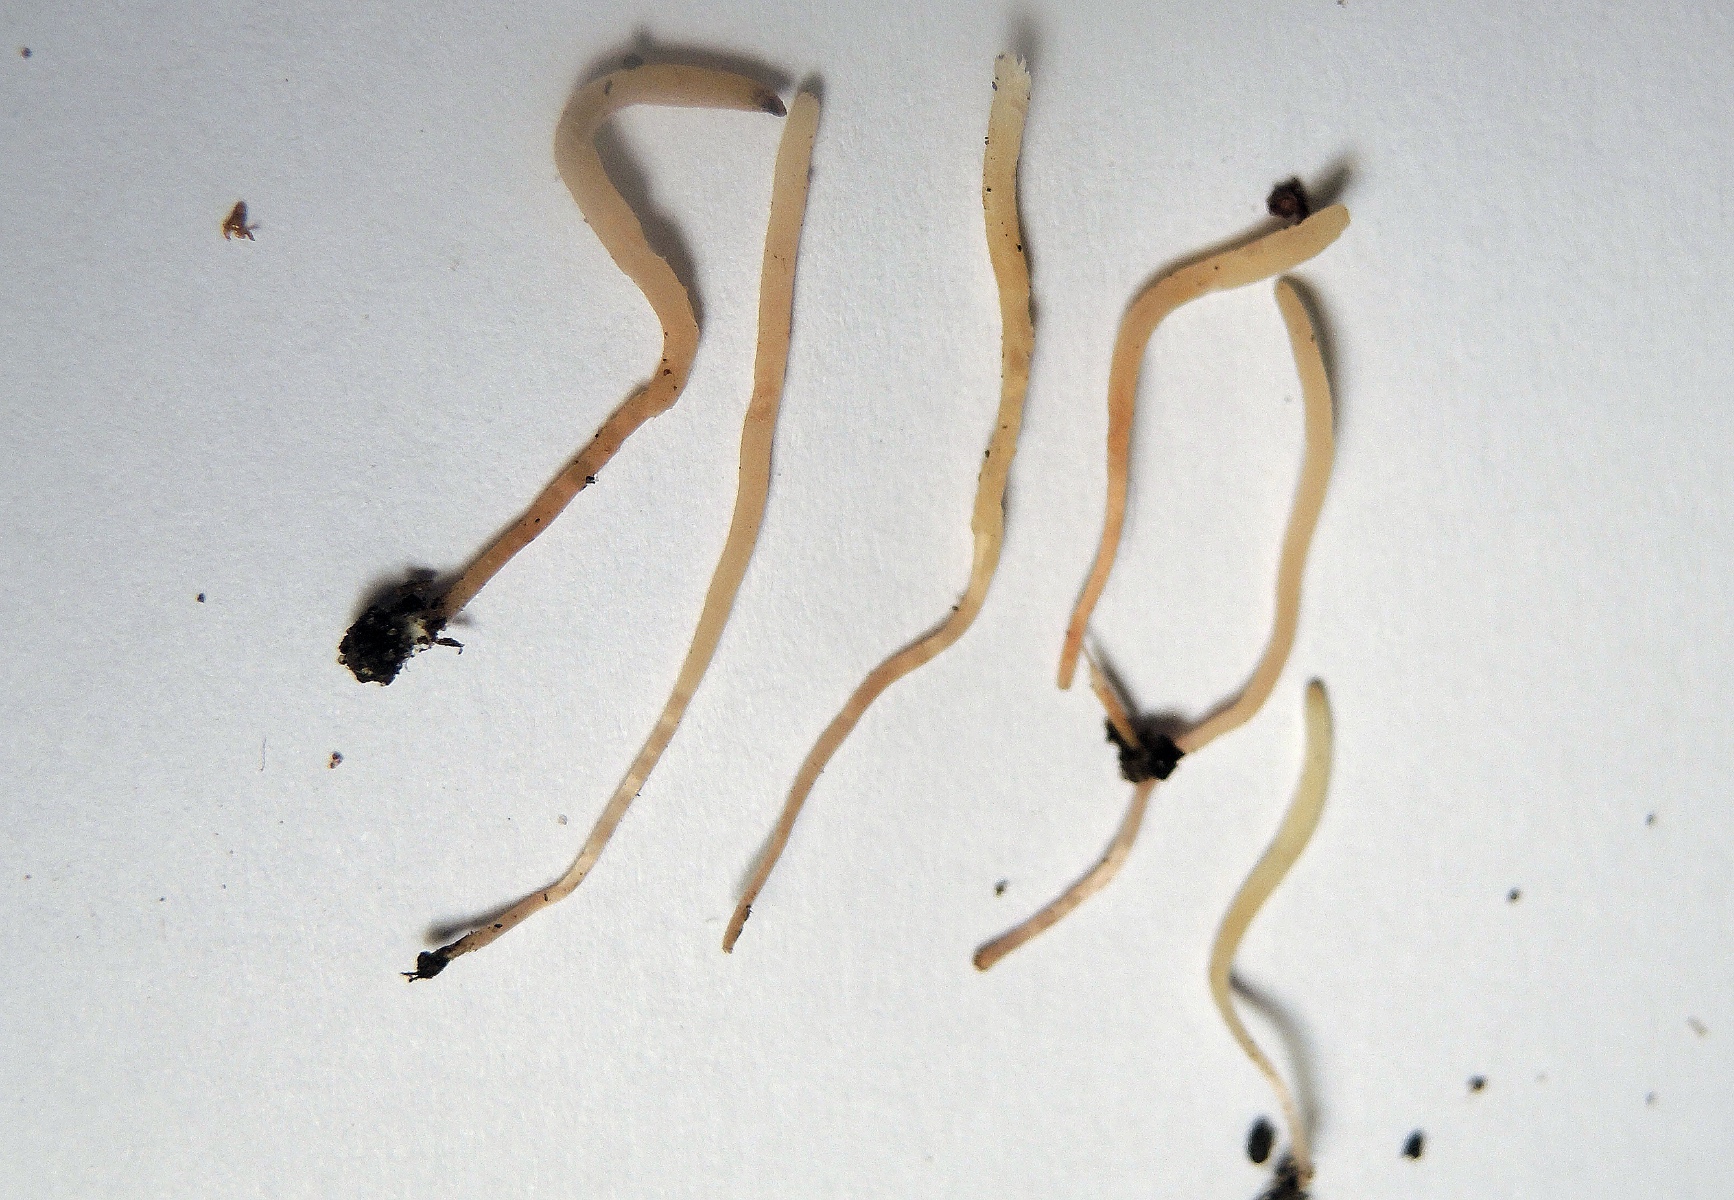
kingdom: Fungi
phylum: Basidiomycota
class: Agaricomycetes
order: Agaricales
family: Clavariaceae
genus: Clavaria
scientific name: Clavaria incarnata
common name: kødrød køllesvamp
